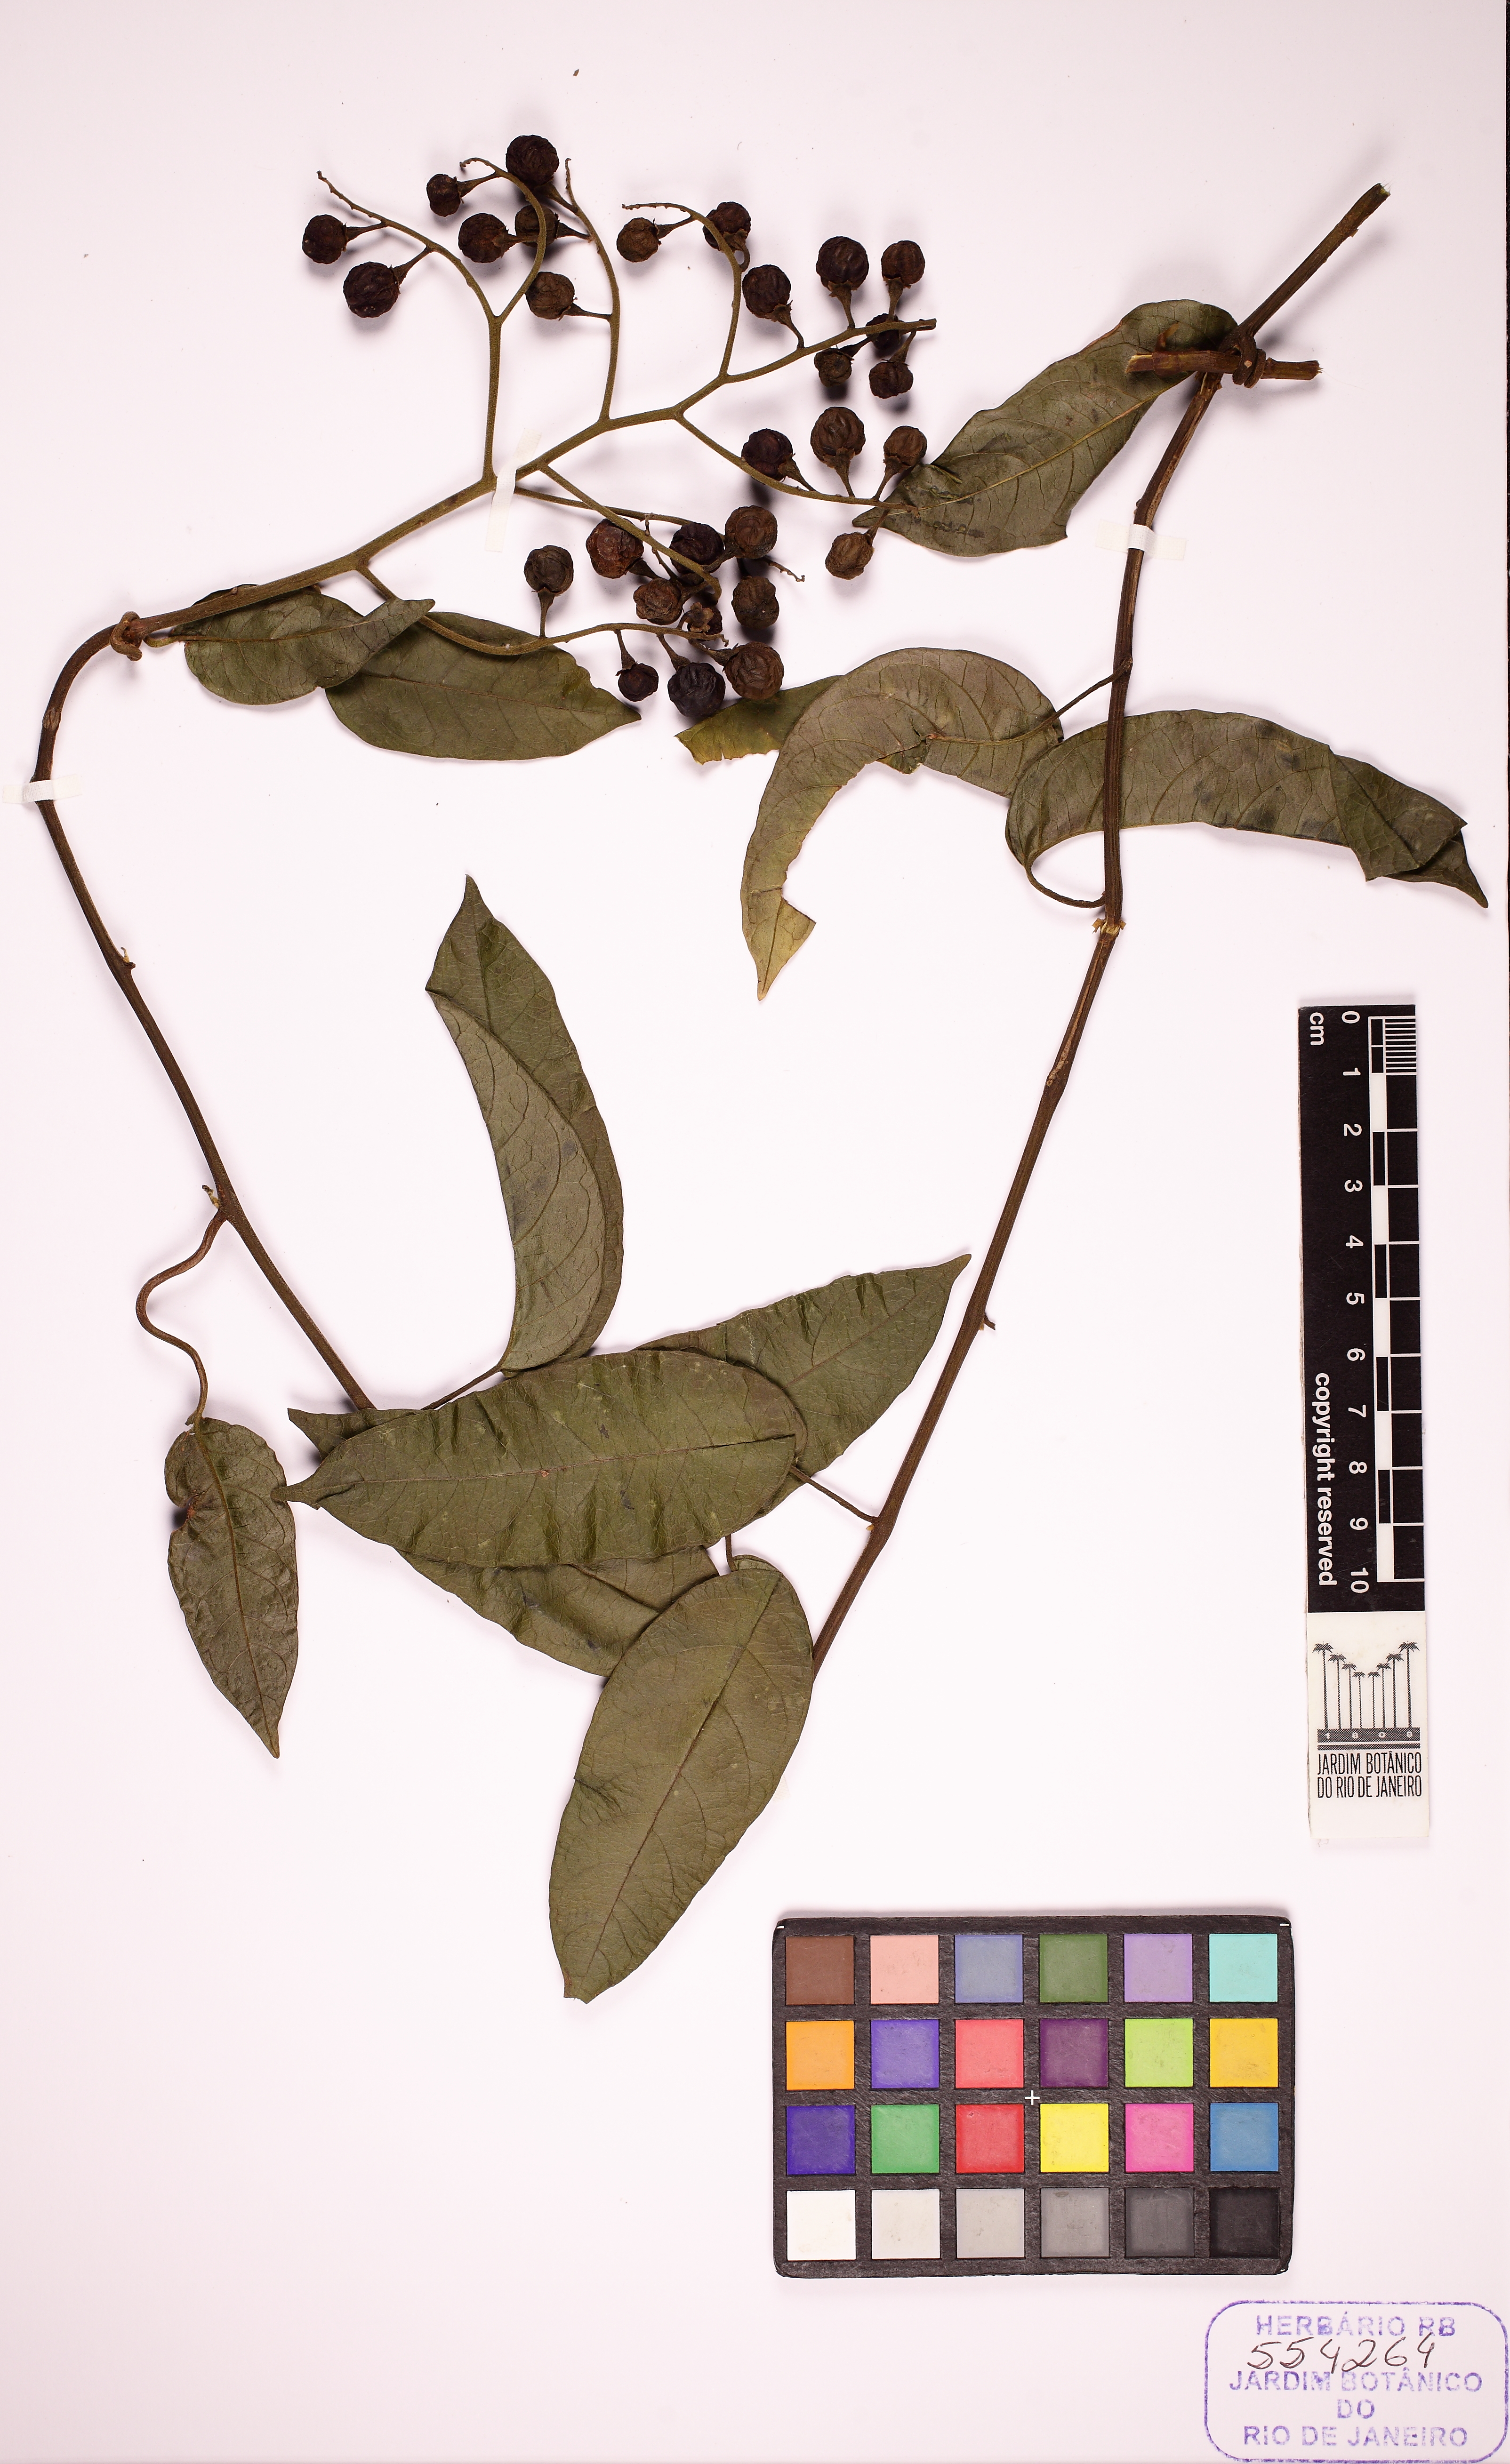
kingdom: Plantae
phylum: Tracheophyta
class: Magnoliopsida
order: Solanales
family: Solanaceae
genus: Solanum
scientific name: Solanum uncinellum
